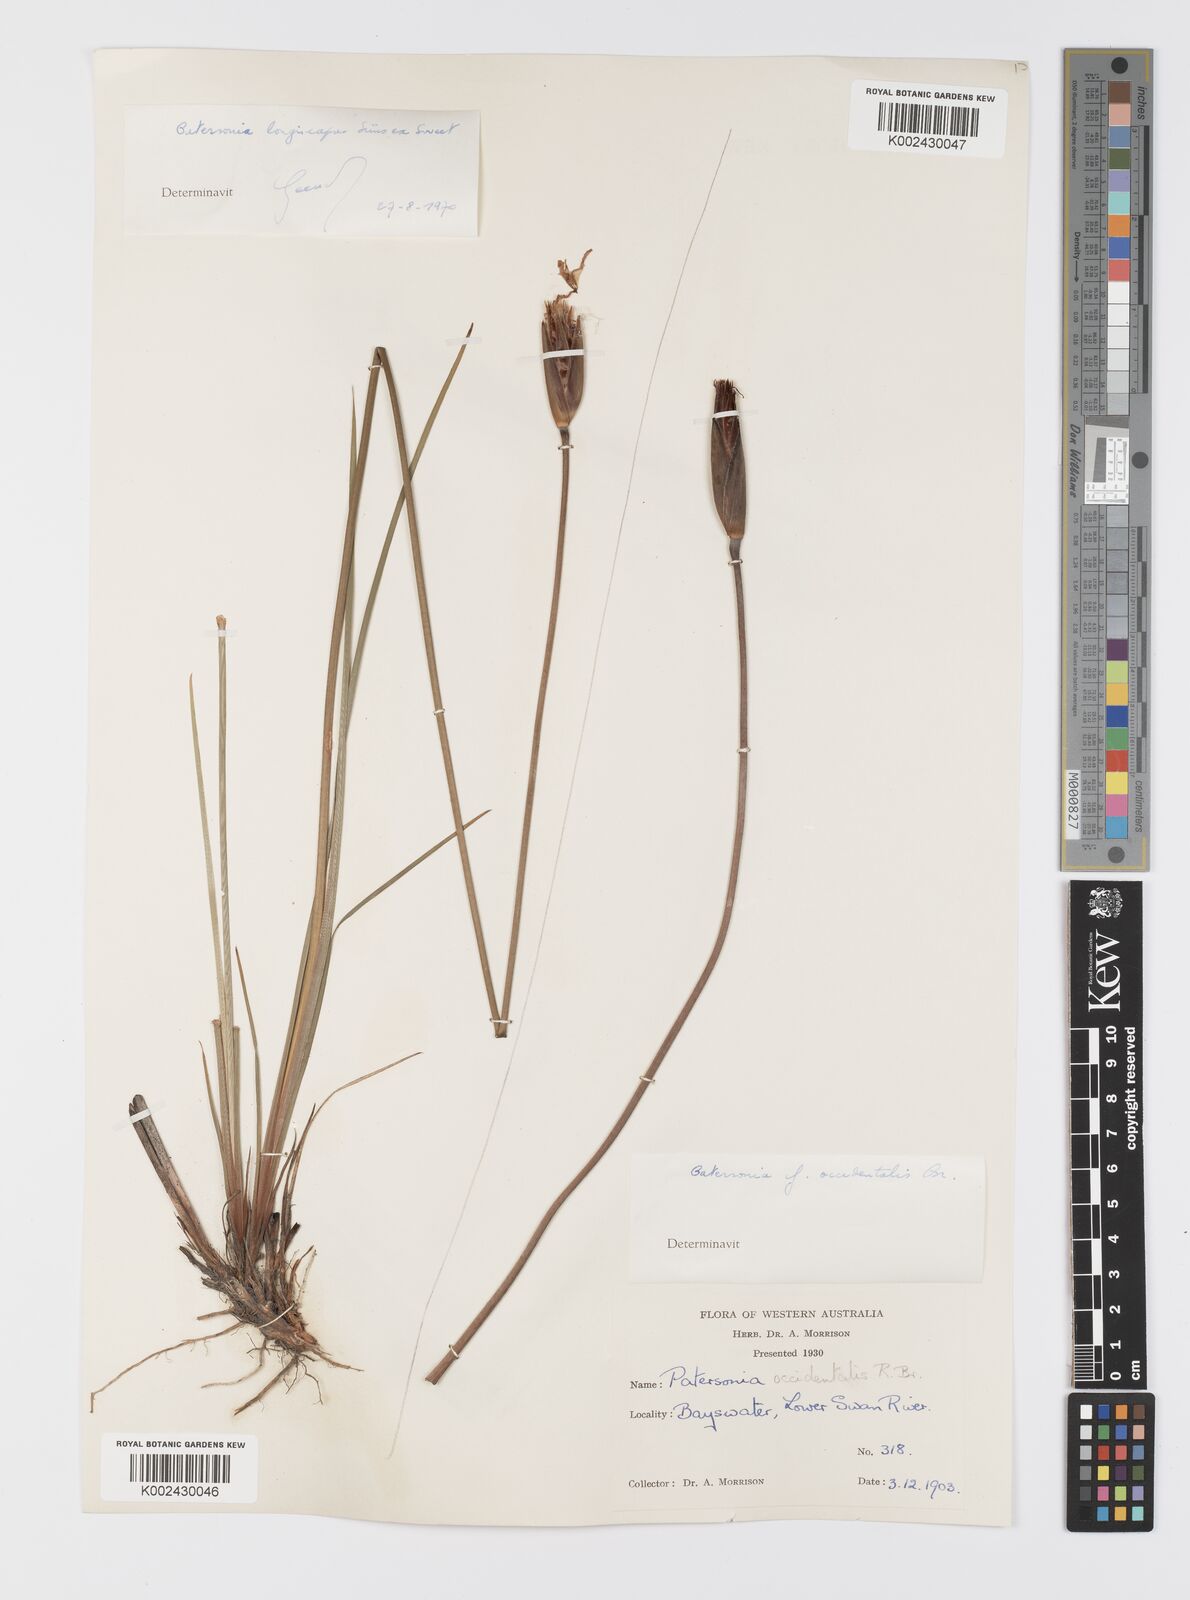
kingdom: Plantae
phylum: Tracheophyta
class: Liliopsida
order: Asparagales
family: Iridaceae
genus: Patersonia
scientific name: Patersonia occidentalis
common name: Long purple-flag
